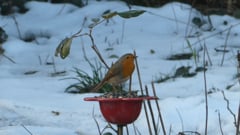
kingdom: Animalia
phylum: Chordata
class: Aves
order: Passeriformes
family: Muscicapidae
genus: Erithacus
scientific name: Erithacus rubecula
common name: European robin
